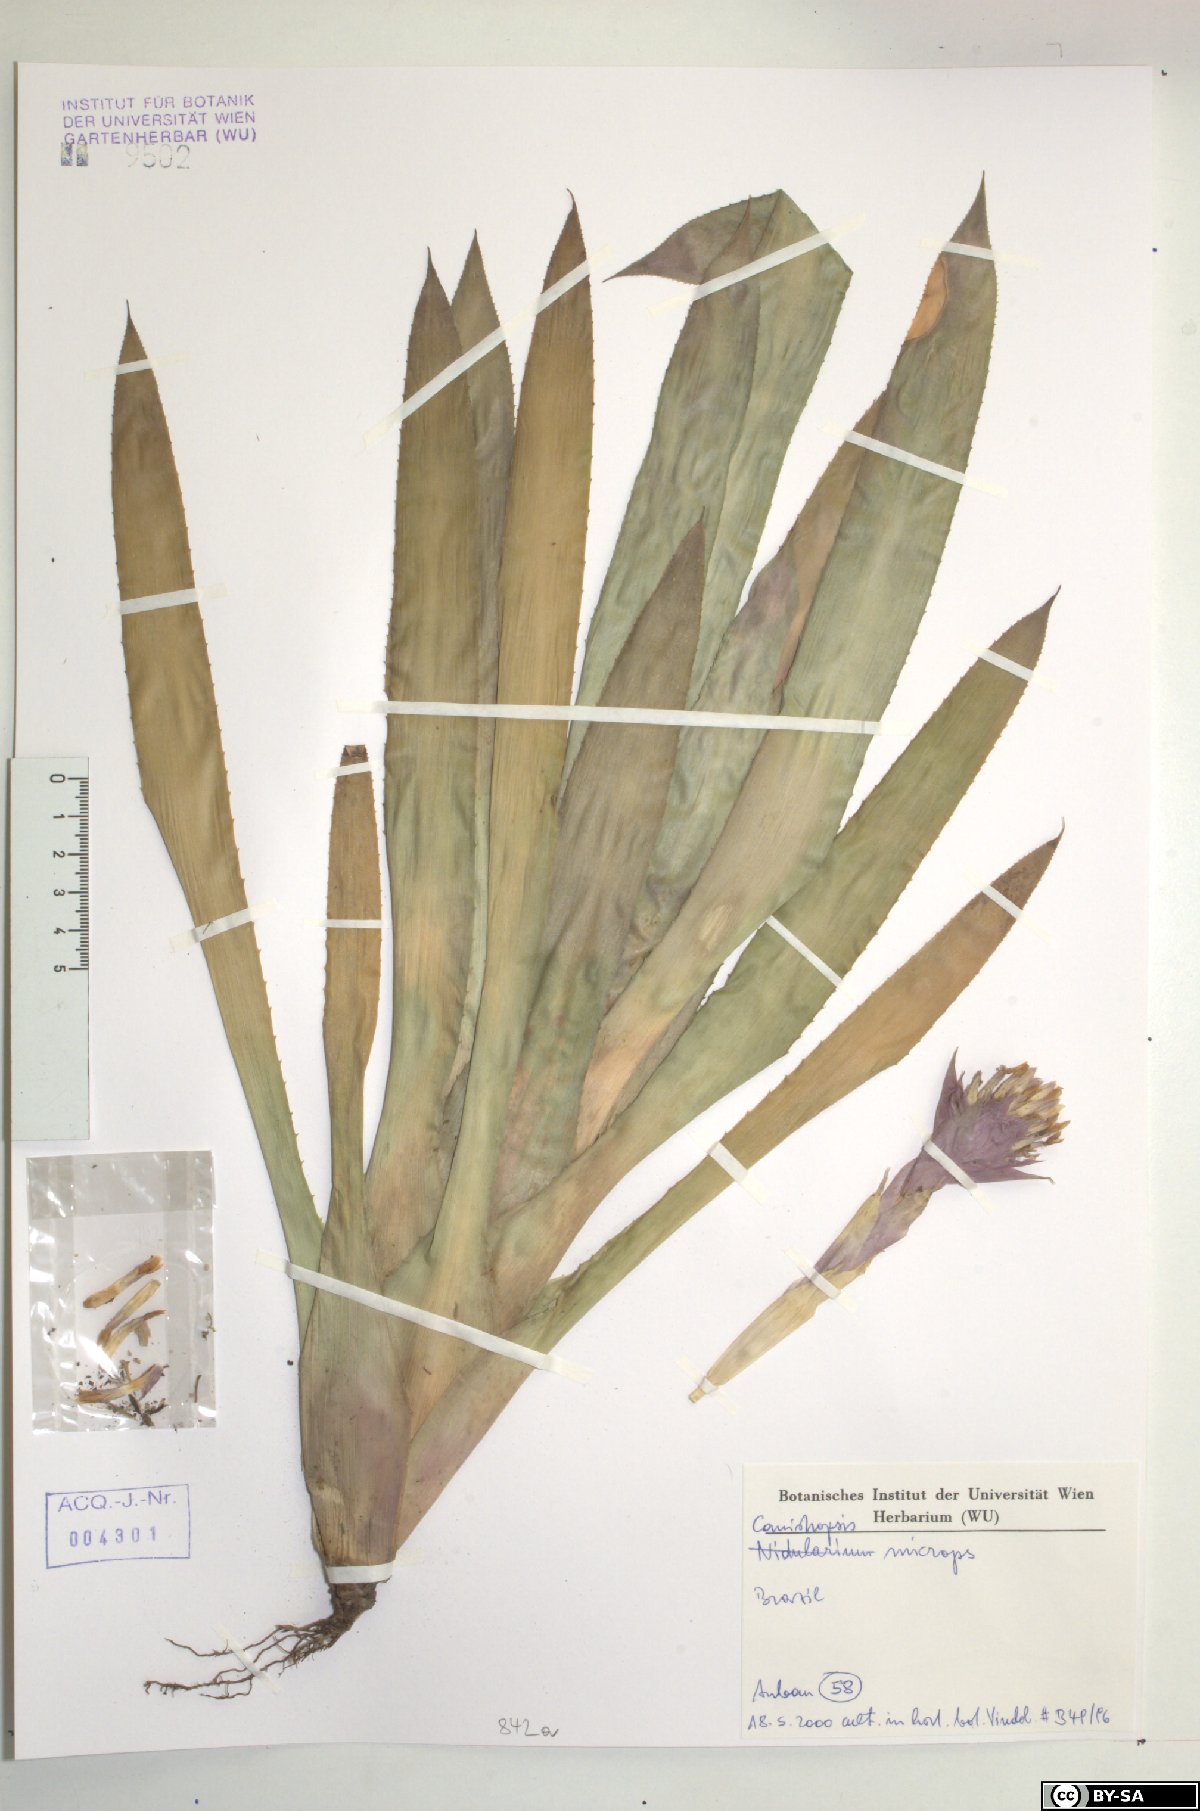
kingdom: Plantae
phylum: Tracheophyta
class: Liliopsida
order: Poales
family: Bromeliaceae
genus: Canistropsis
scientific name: Canistropsis microps
